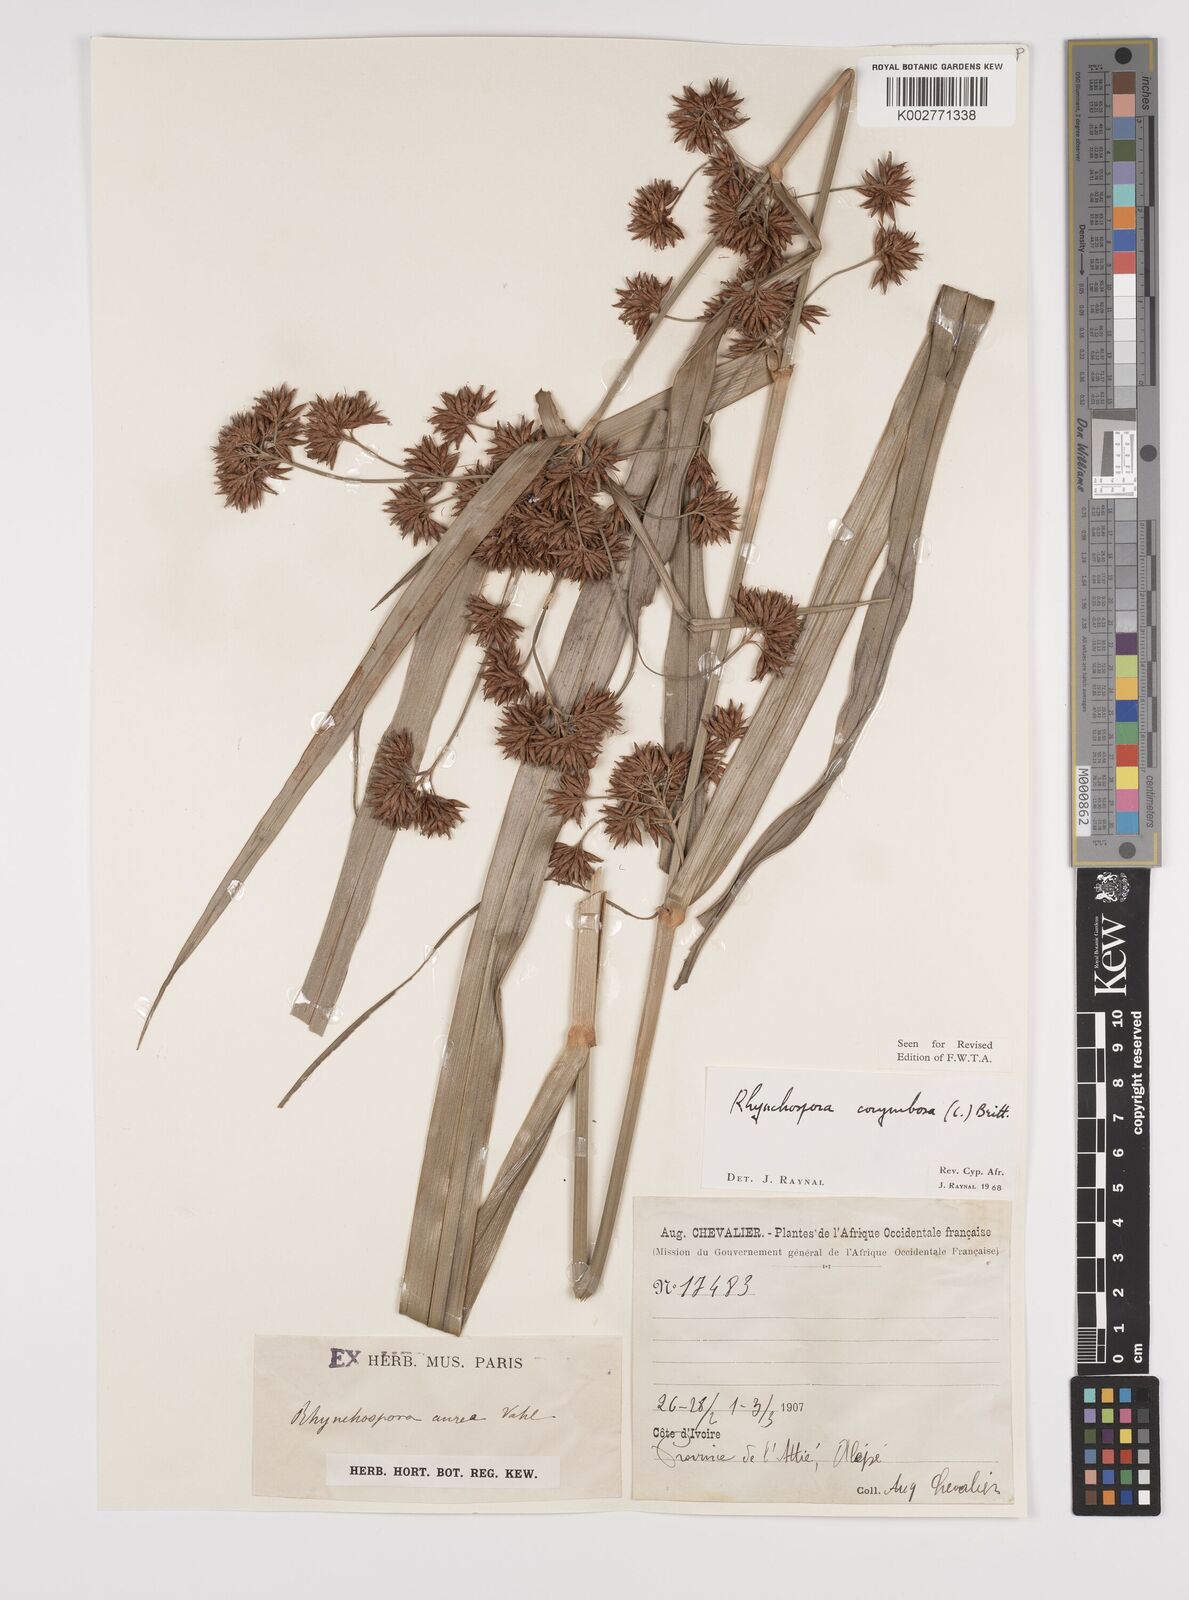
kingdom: Plantae
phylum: Tracheophyta
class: Liliopsida
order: Poales
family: Cyperaceae
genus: Rhynchospora
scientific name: Rhynchospora corymbosa
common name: Golden beak sedge
